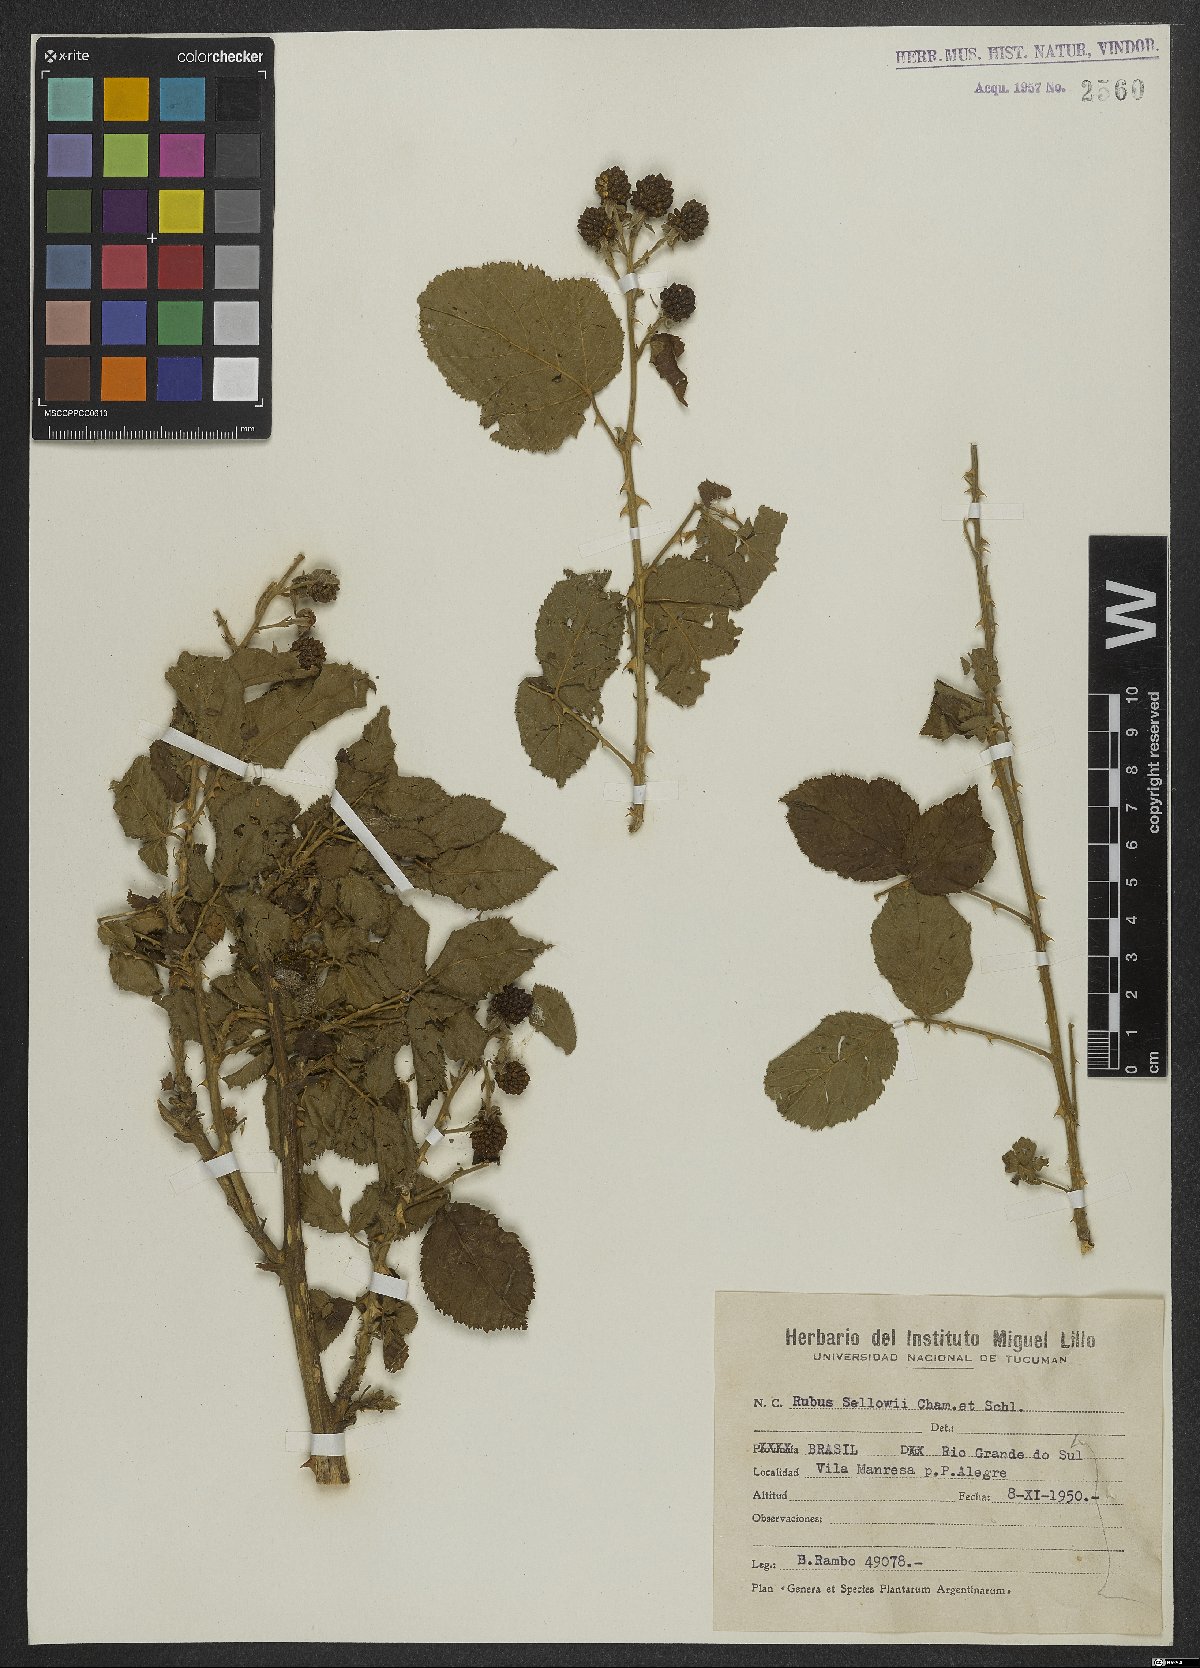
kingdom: Plantae
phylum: Tracheophyta
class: Magnoliopsida
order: Rosales
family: Rosaceae
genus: Rubus
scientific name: Rubus sellowii
